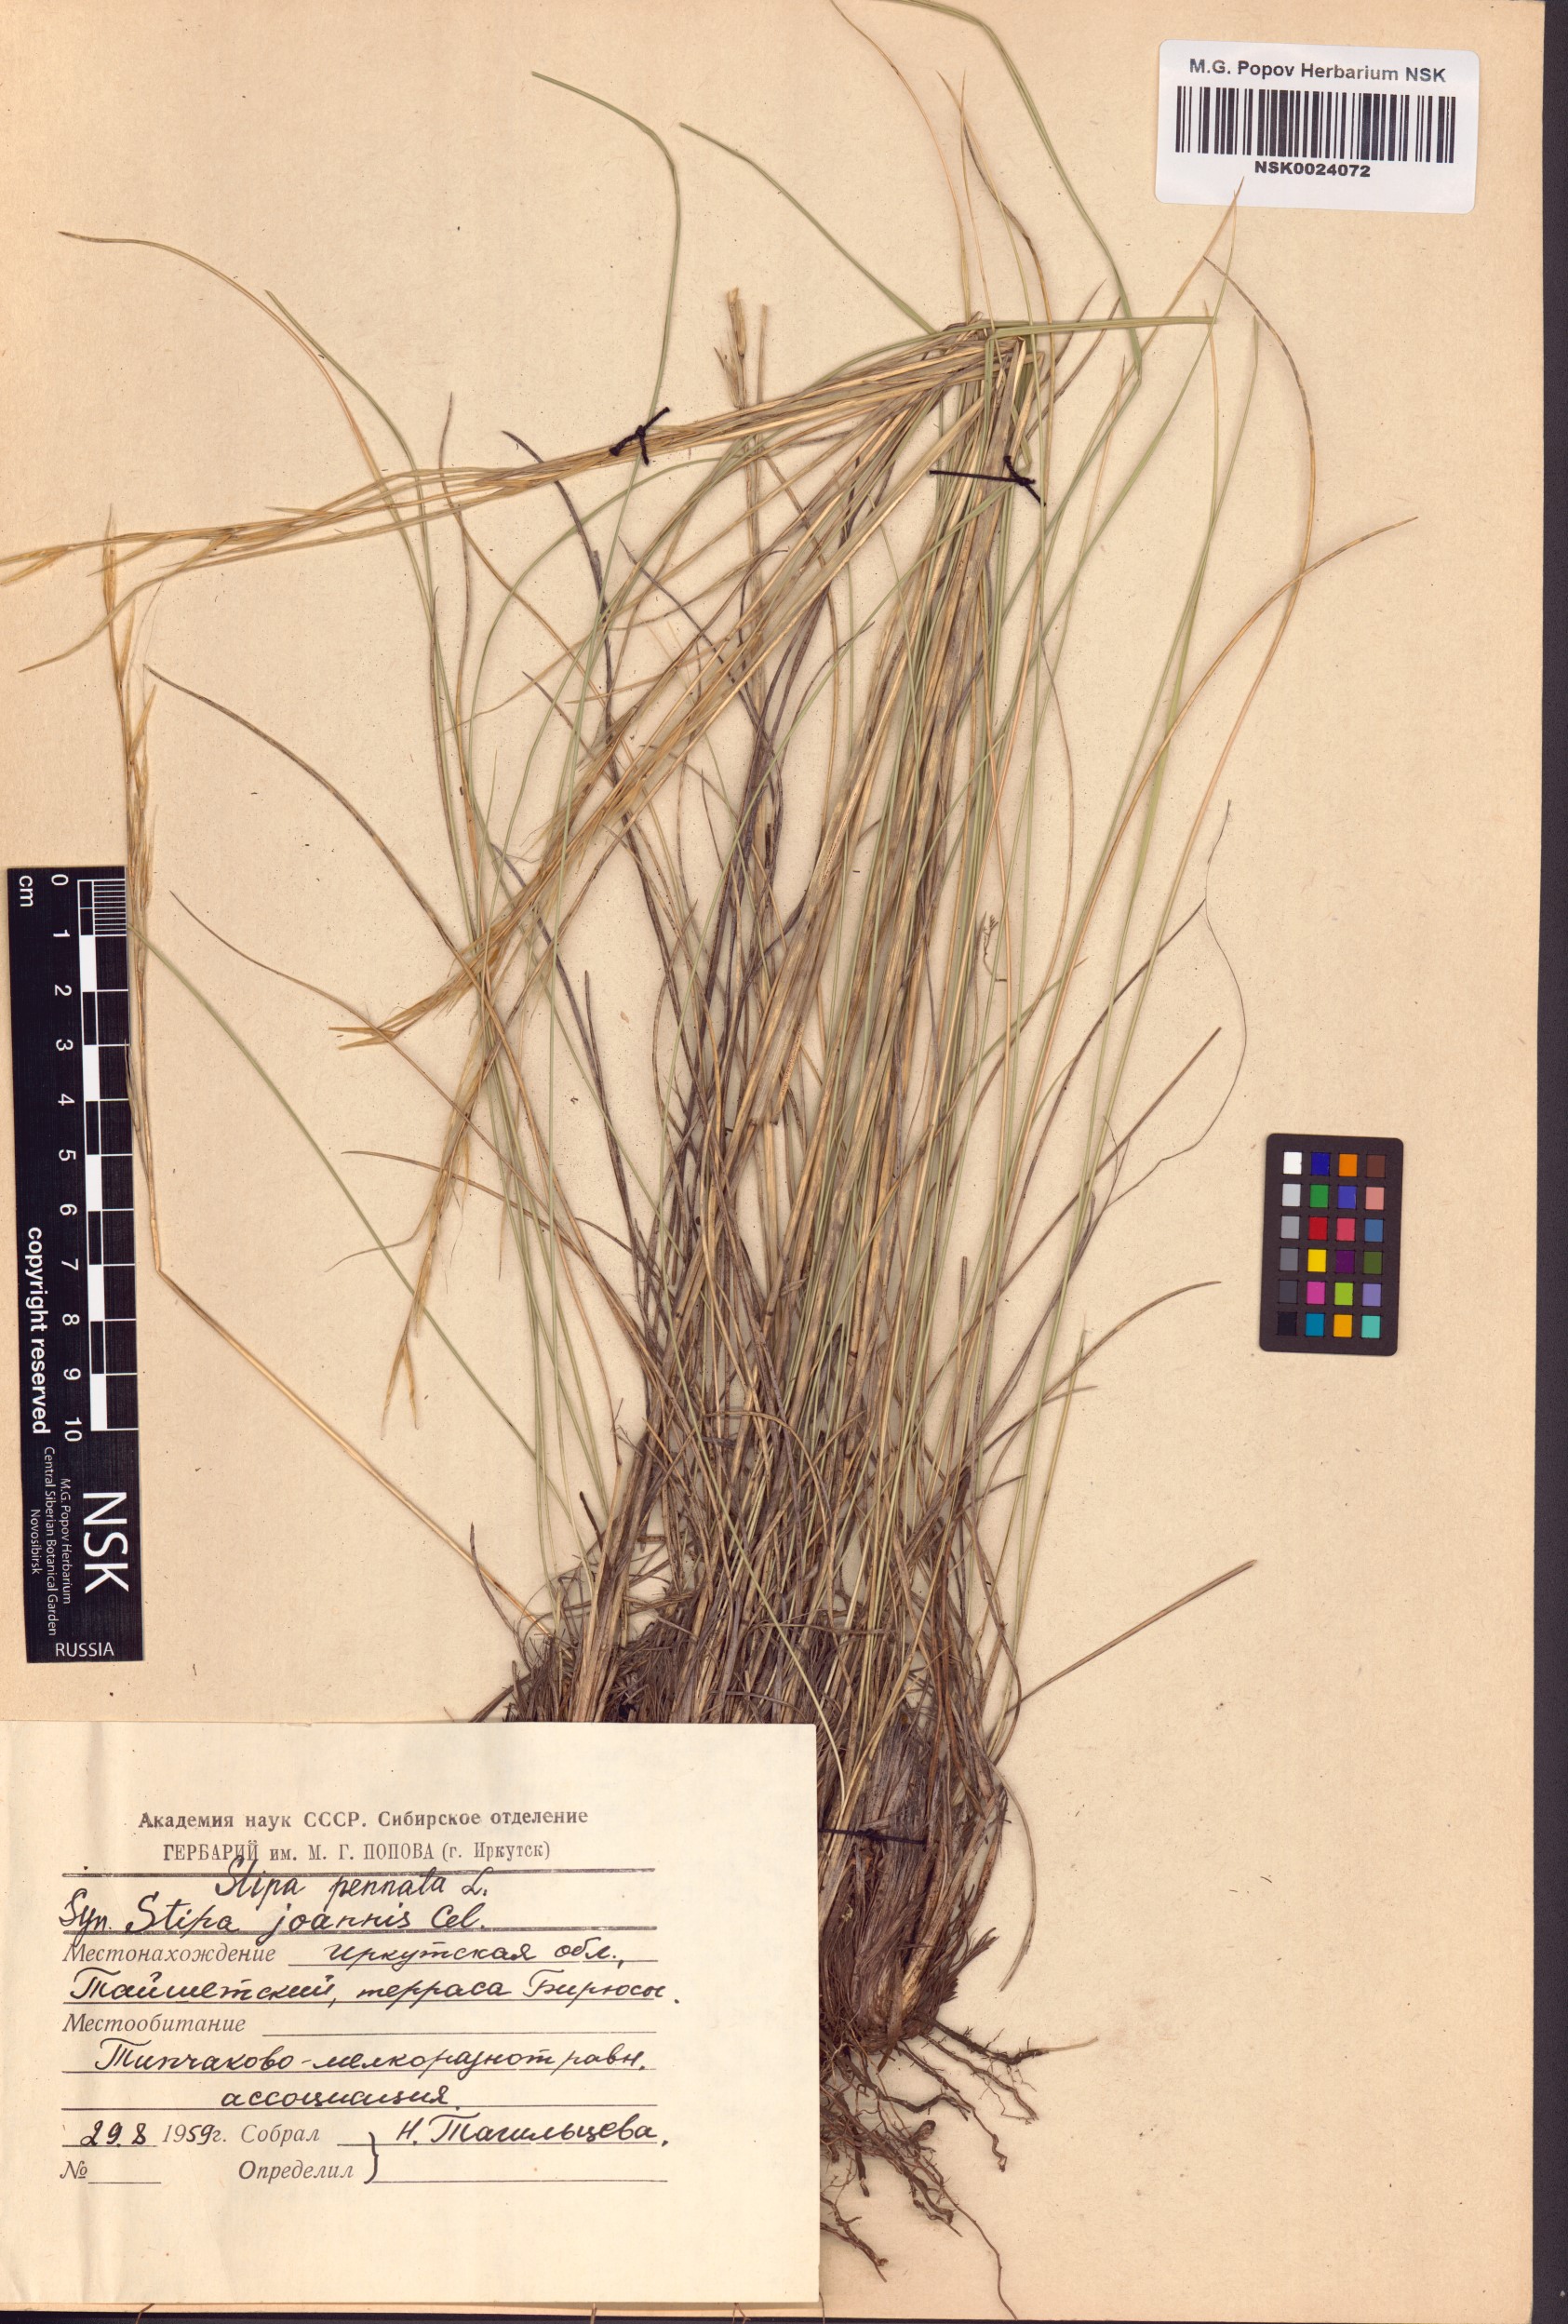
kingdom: Plantae
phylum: Tracheophyta
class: Liliopsida
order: Poales
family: Poaceae
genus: Stipa
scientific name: Stipa pennata
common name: European feather grass
